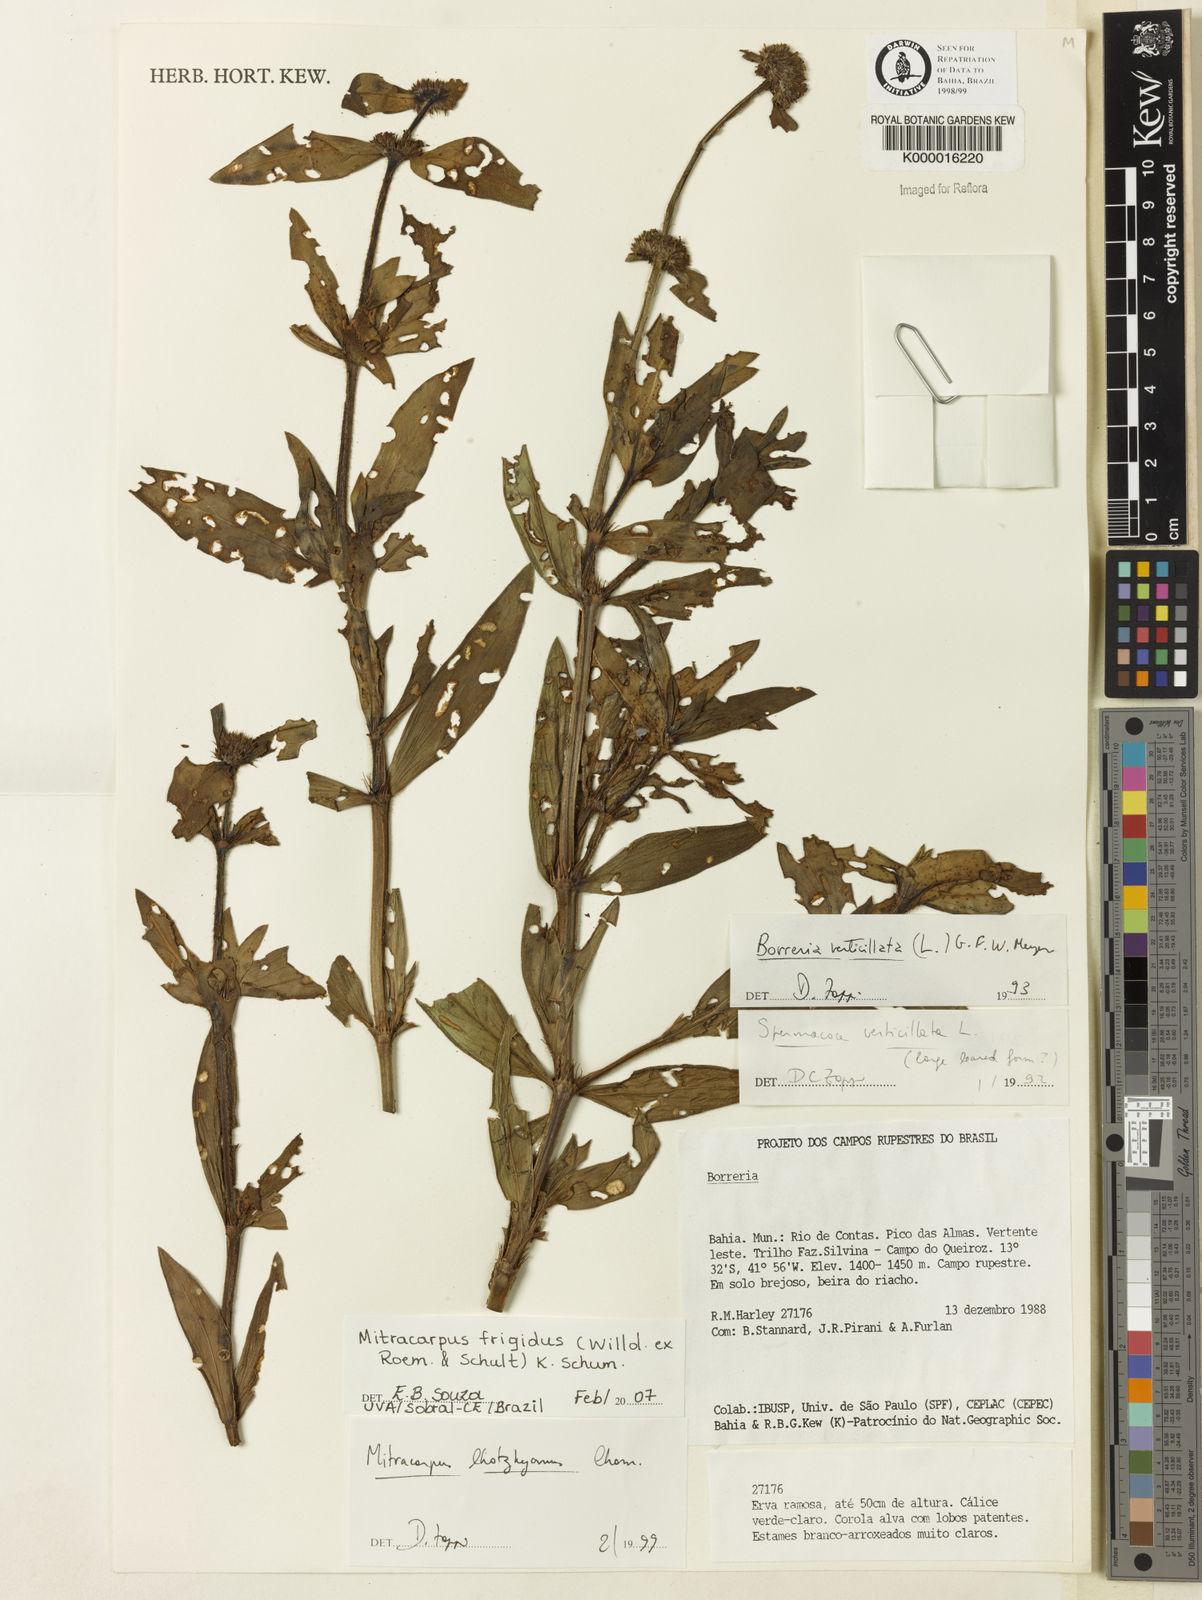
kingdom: Plantae
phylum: Tracheophyta
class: Magnoliopsida
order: Gentianales
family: Rubiaceae
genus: Mitracarpus
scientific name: Mitracarpus frigidus
